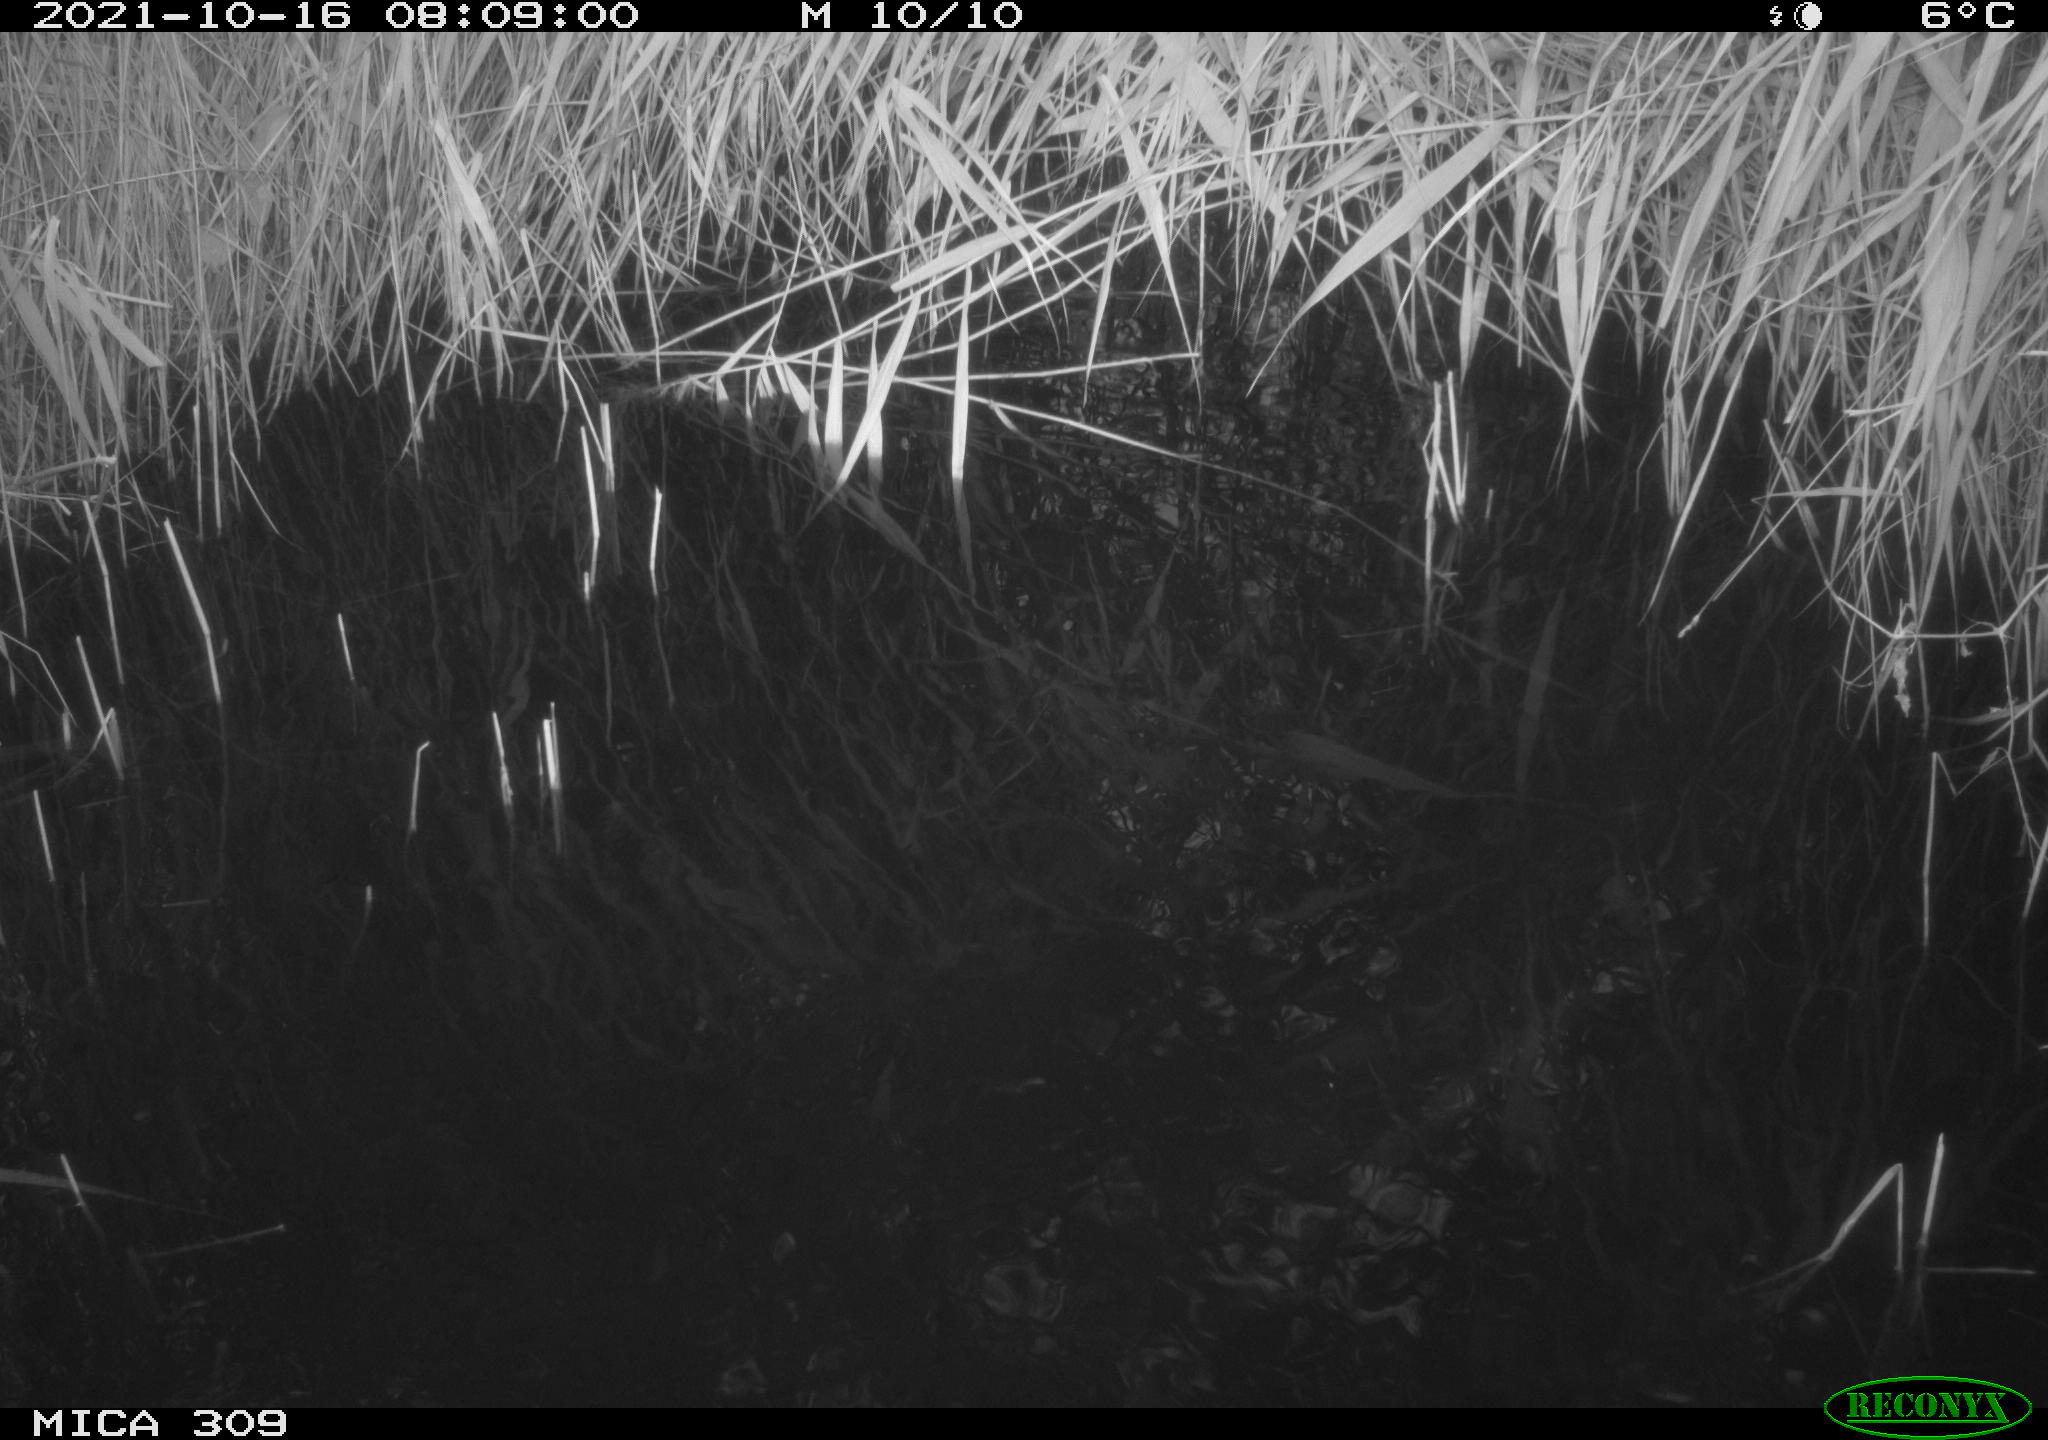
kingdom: Animalia
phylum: Chordata
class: Aves
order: Gruiformes
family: Rallidae
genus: Fulica
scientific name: Fulica atra
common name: Eurasian coot
